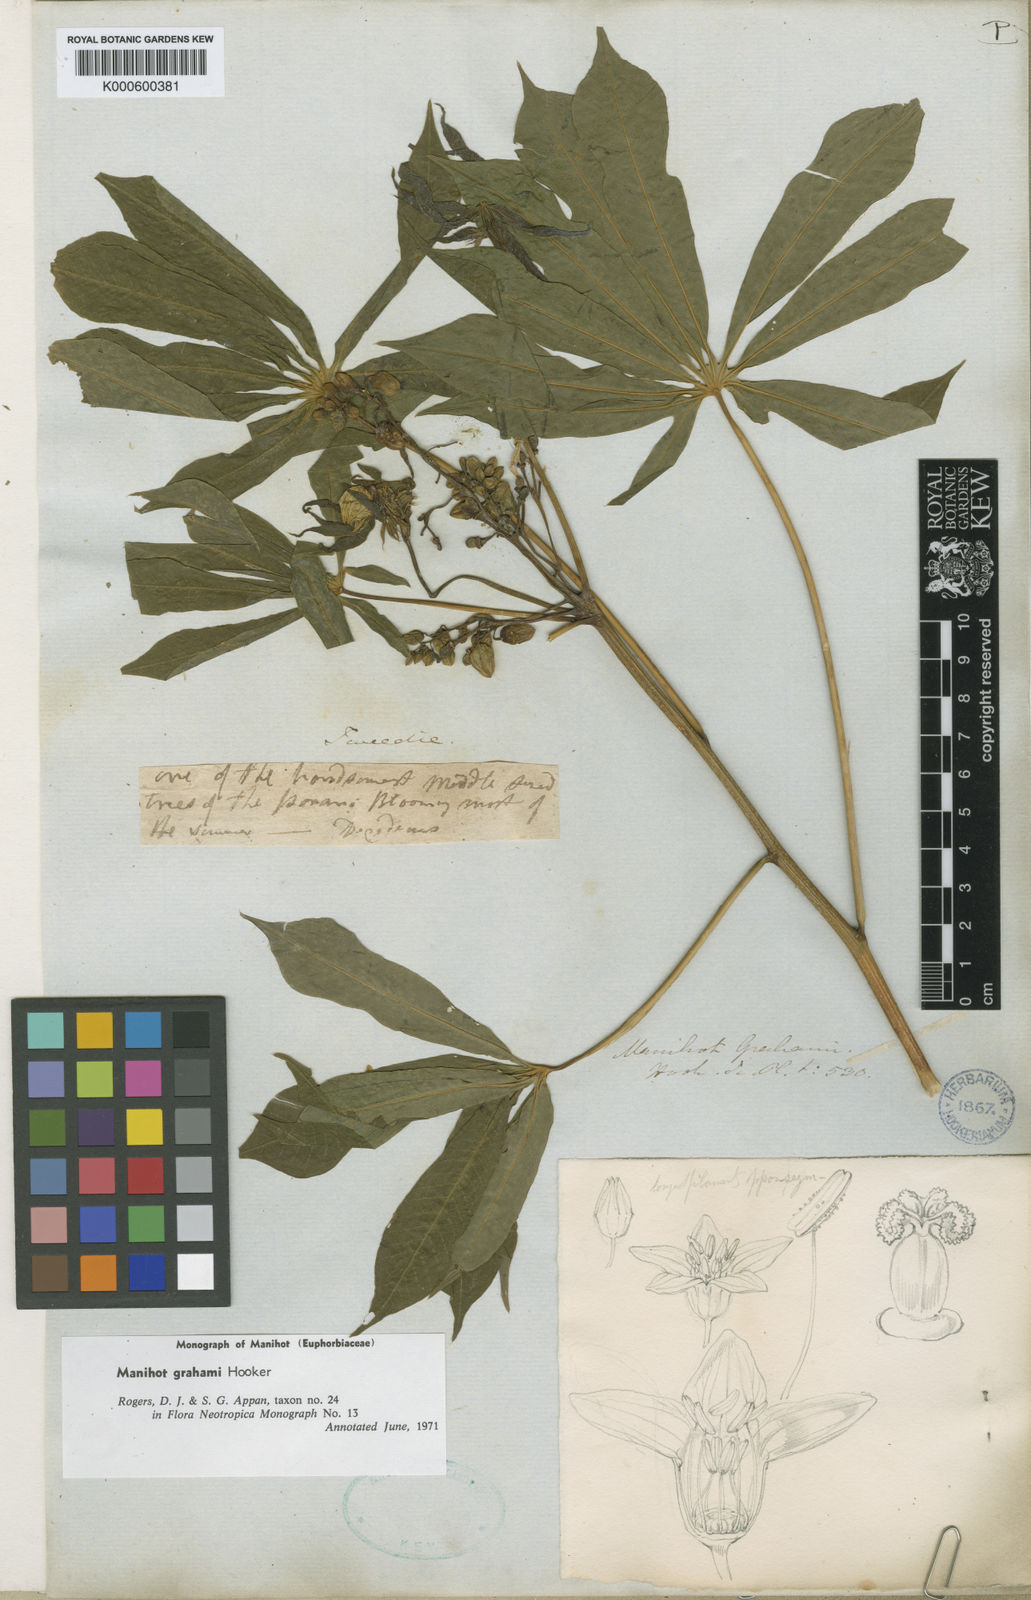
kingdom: Plantae
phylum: Tracheophyta
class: Magnoliopsida
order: Malpighiales
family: Euphorbiaceae
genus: Manihot
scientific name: Manihot grahamii
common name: Graham's manihot
